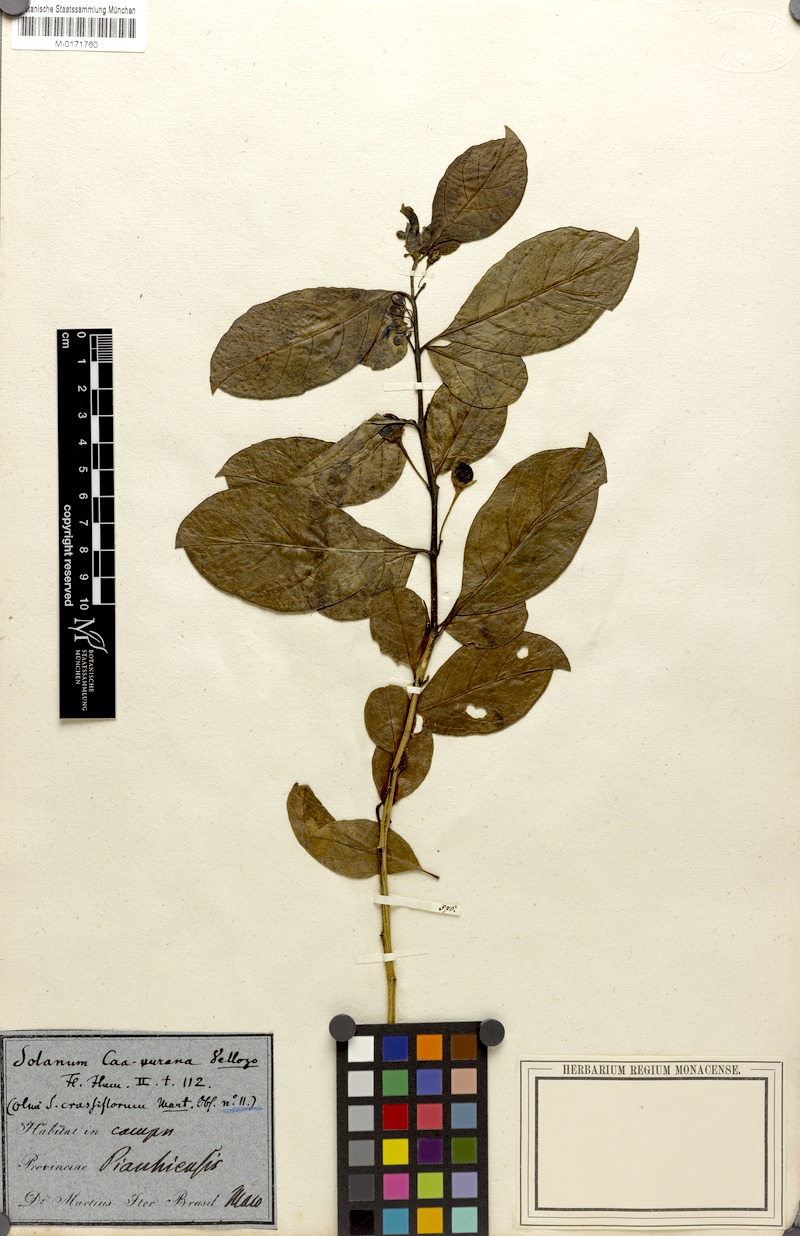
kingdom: Plantae
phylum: Tracheophyta
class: Magnoliopsida
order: Solanales
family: Solanaceae
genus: Solanum
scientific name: Solanum caavurana
